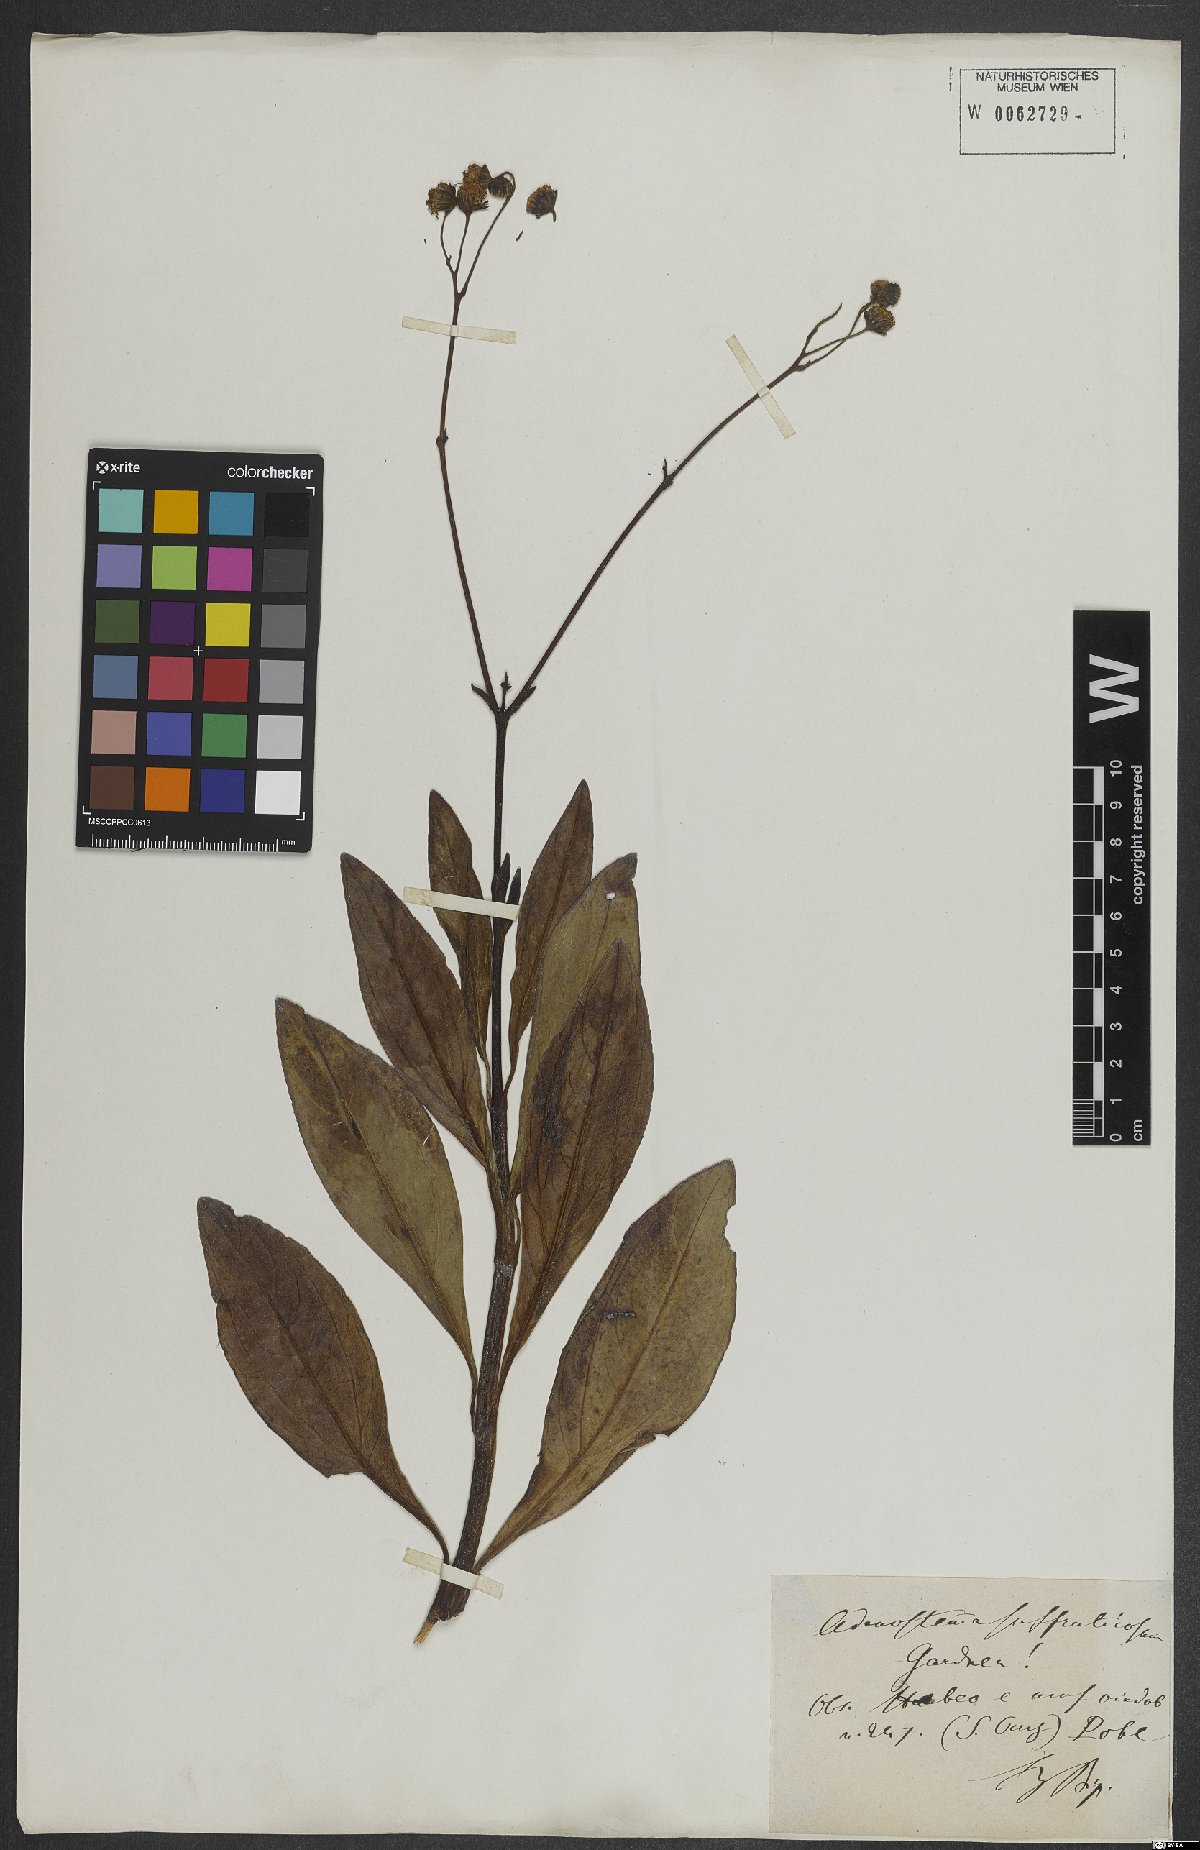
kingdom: Plantae
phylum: Tracheophyta
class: Magnoliopsida
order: Asterales
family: Asteraceae
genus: Adenostemma
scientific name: Adenostemma suffruticosum
